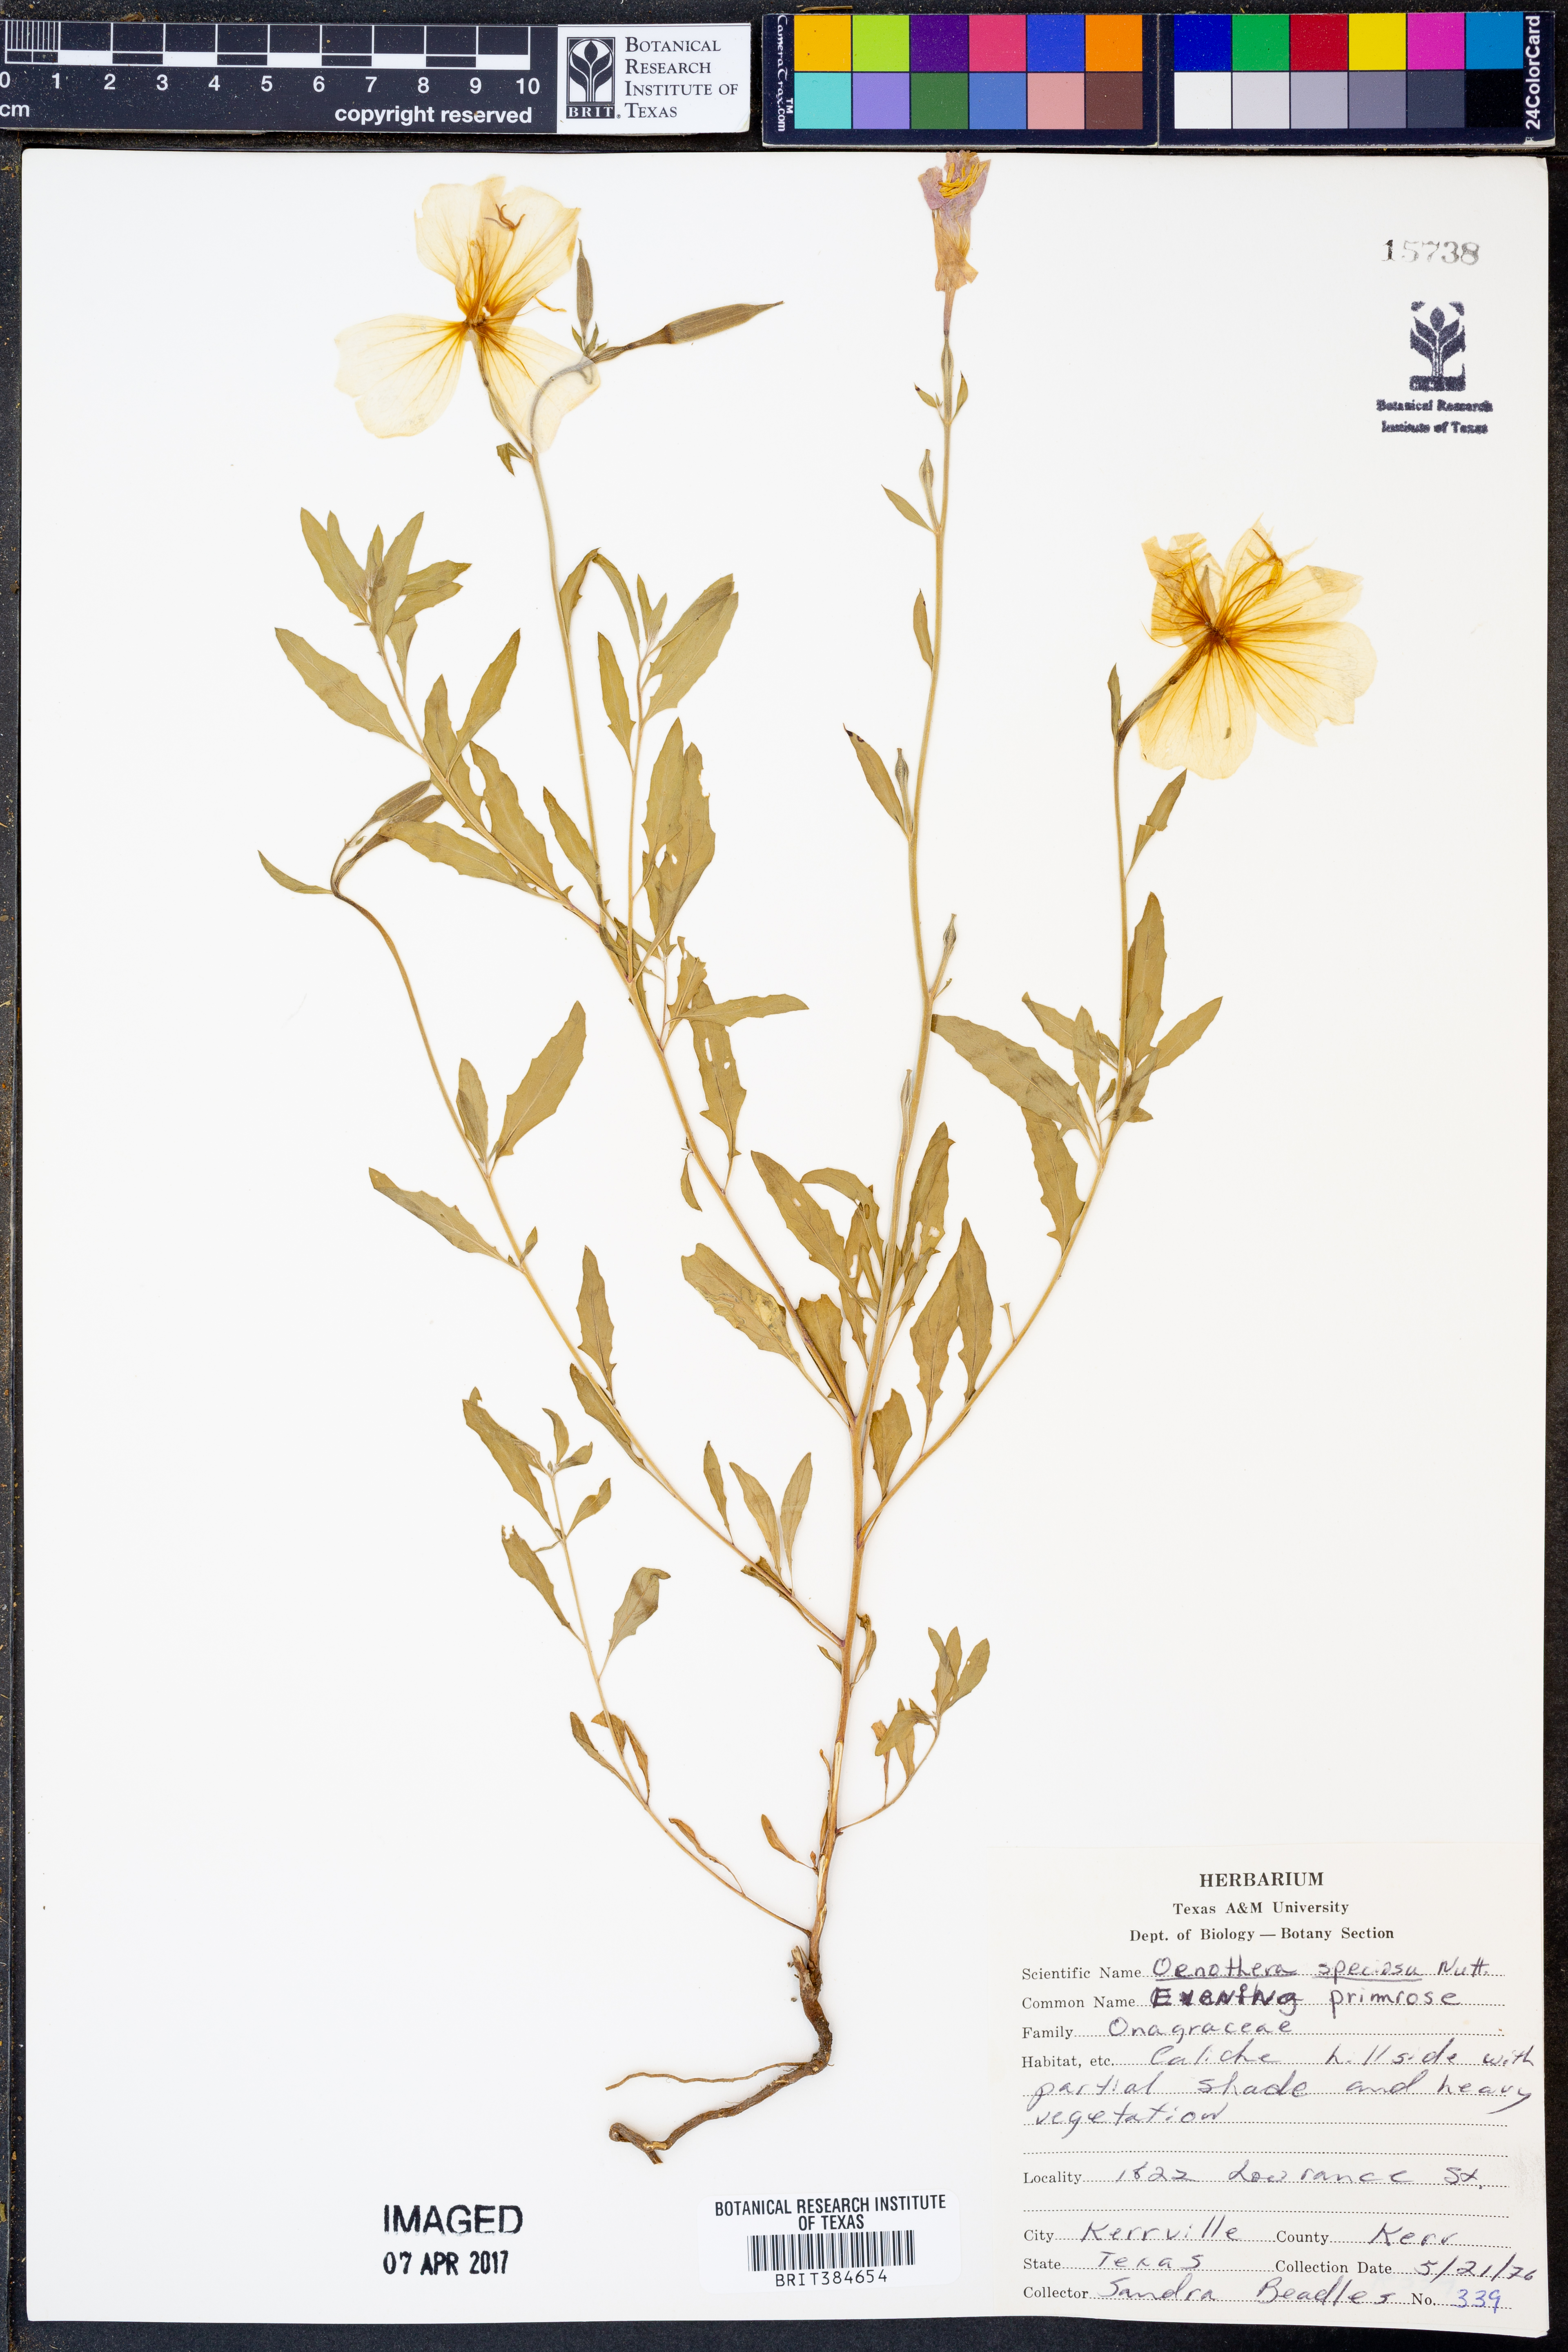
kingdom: Plantae
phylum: Tracheophyta
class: Magnoliopsida
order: Myrtales
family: Onagraceae
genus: Oenothera
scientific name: Oenothera speciosa
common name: White evening-primrose
